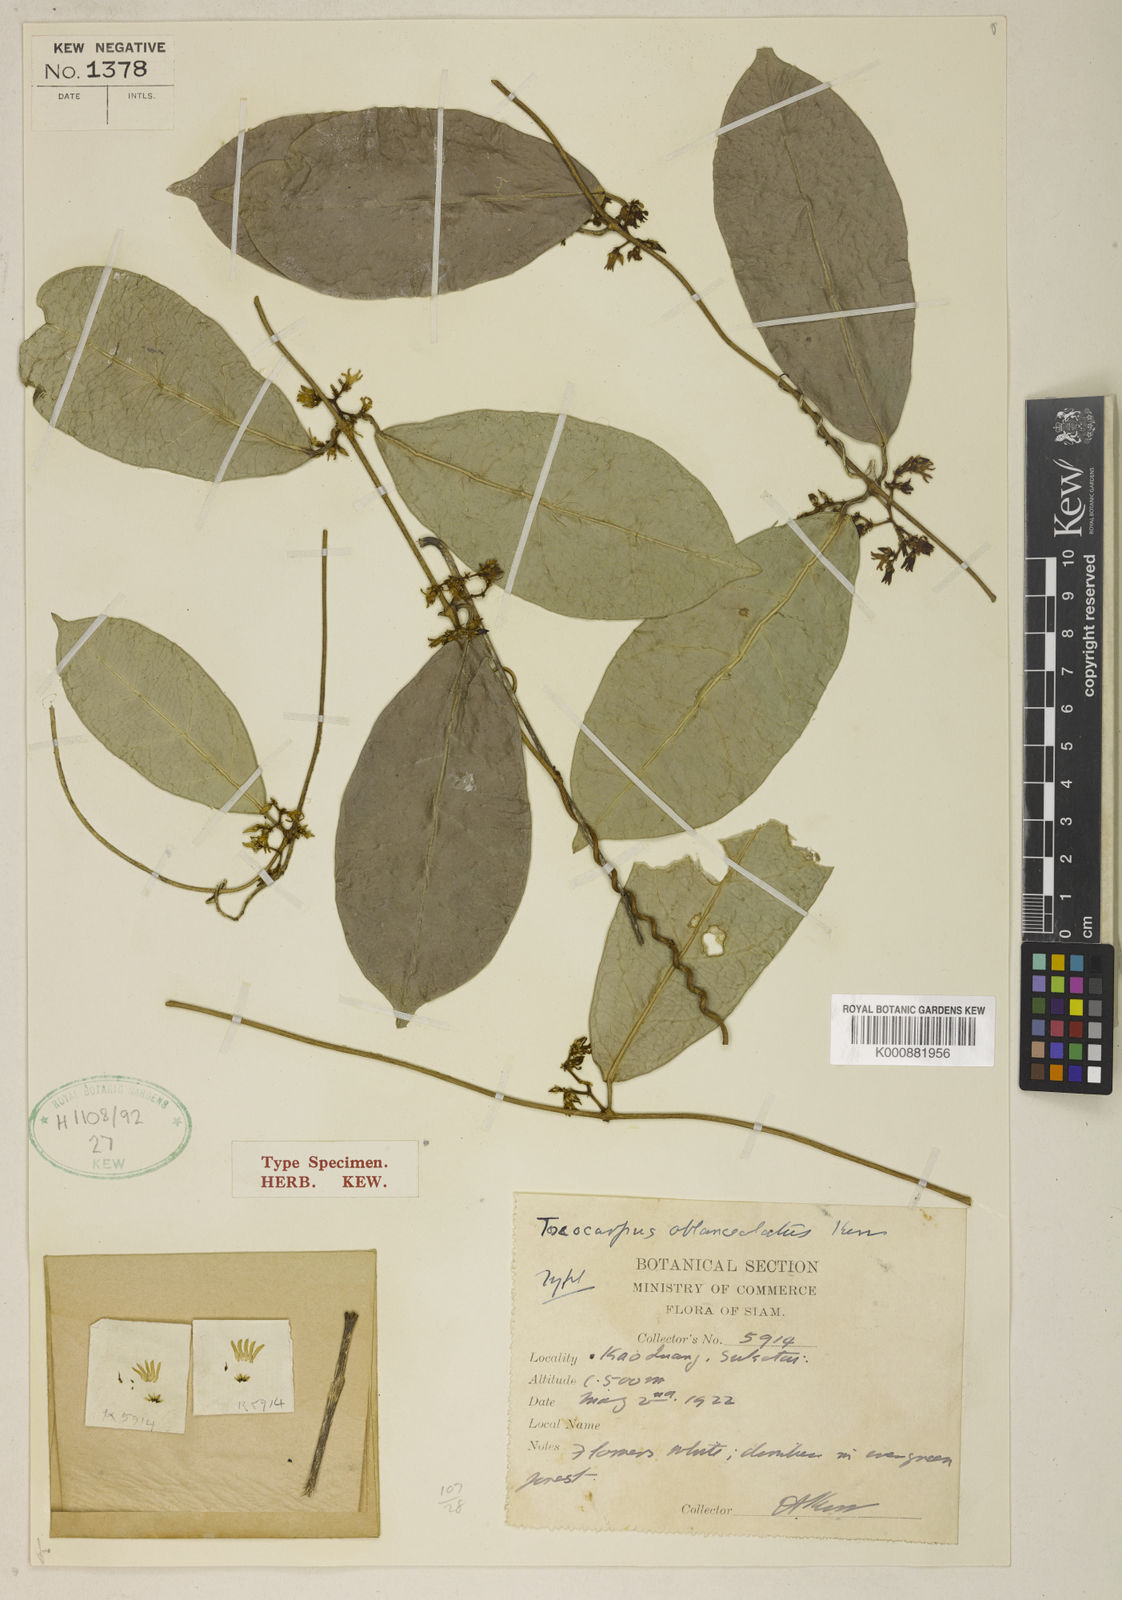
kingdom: Plantae
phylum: Tracheophyta
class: Magnoliopsida
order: Gentianales
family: Apocynaceae
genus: Secamone
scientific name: Secamone
